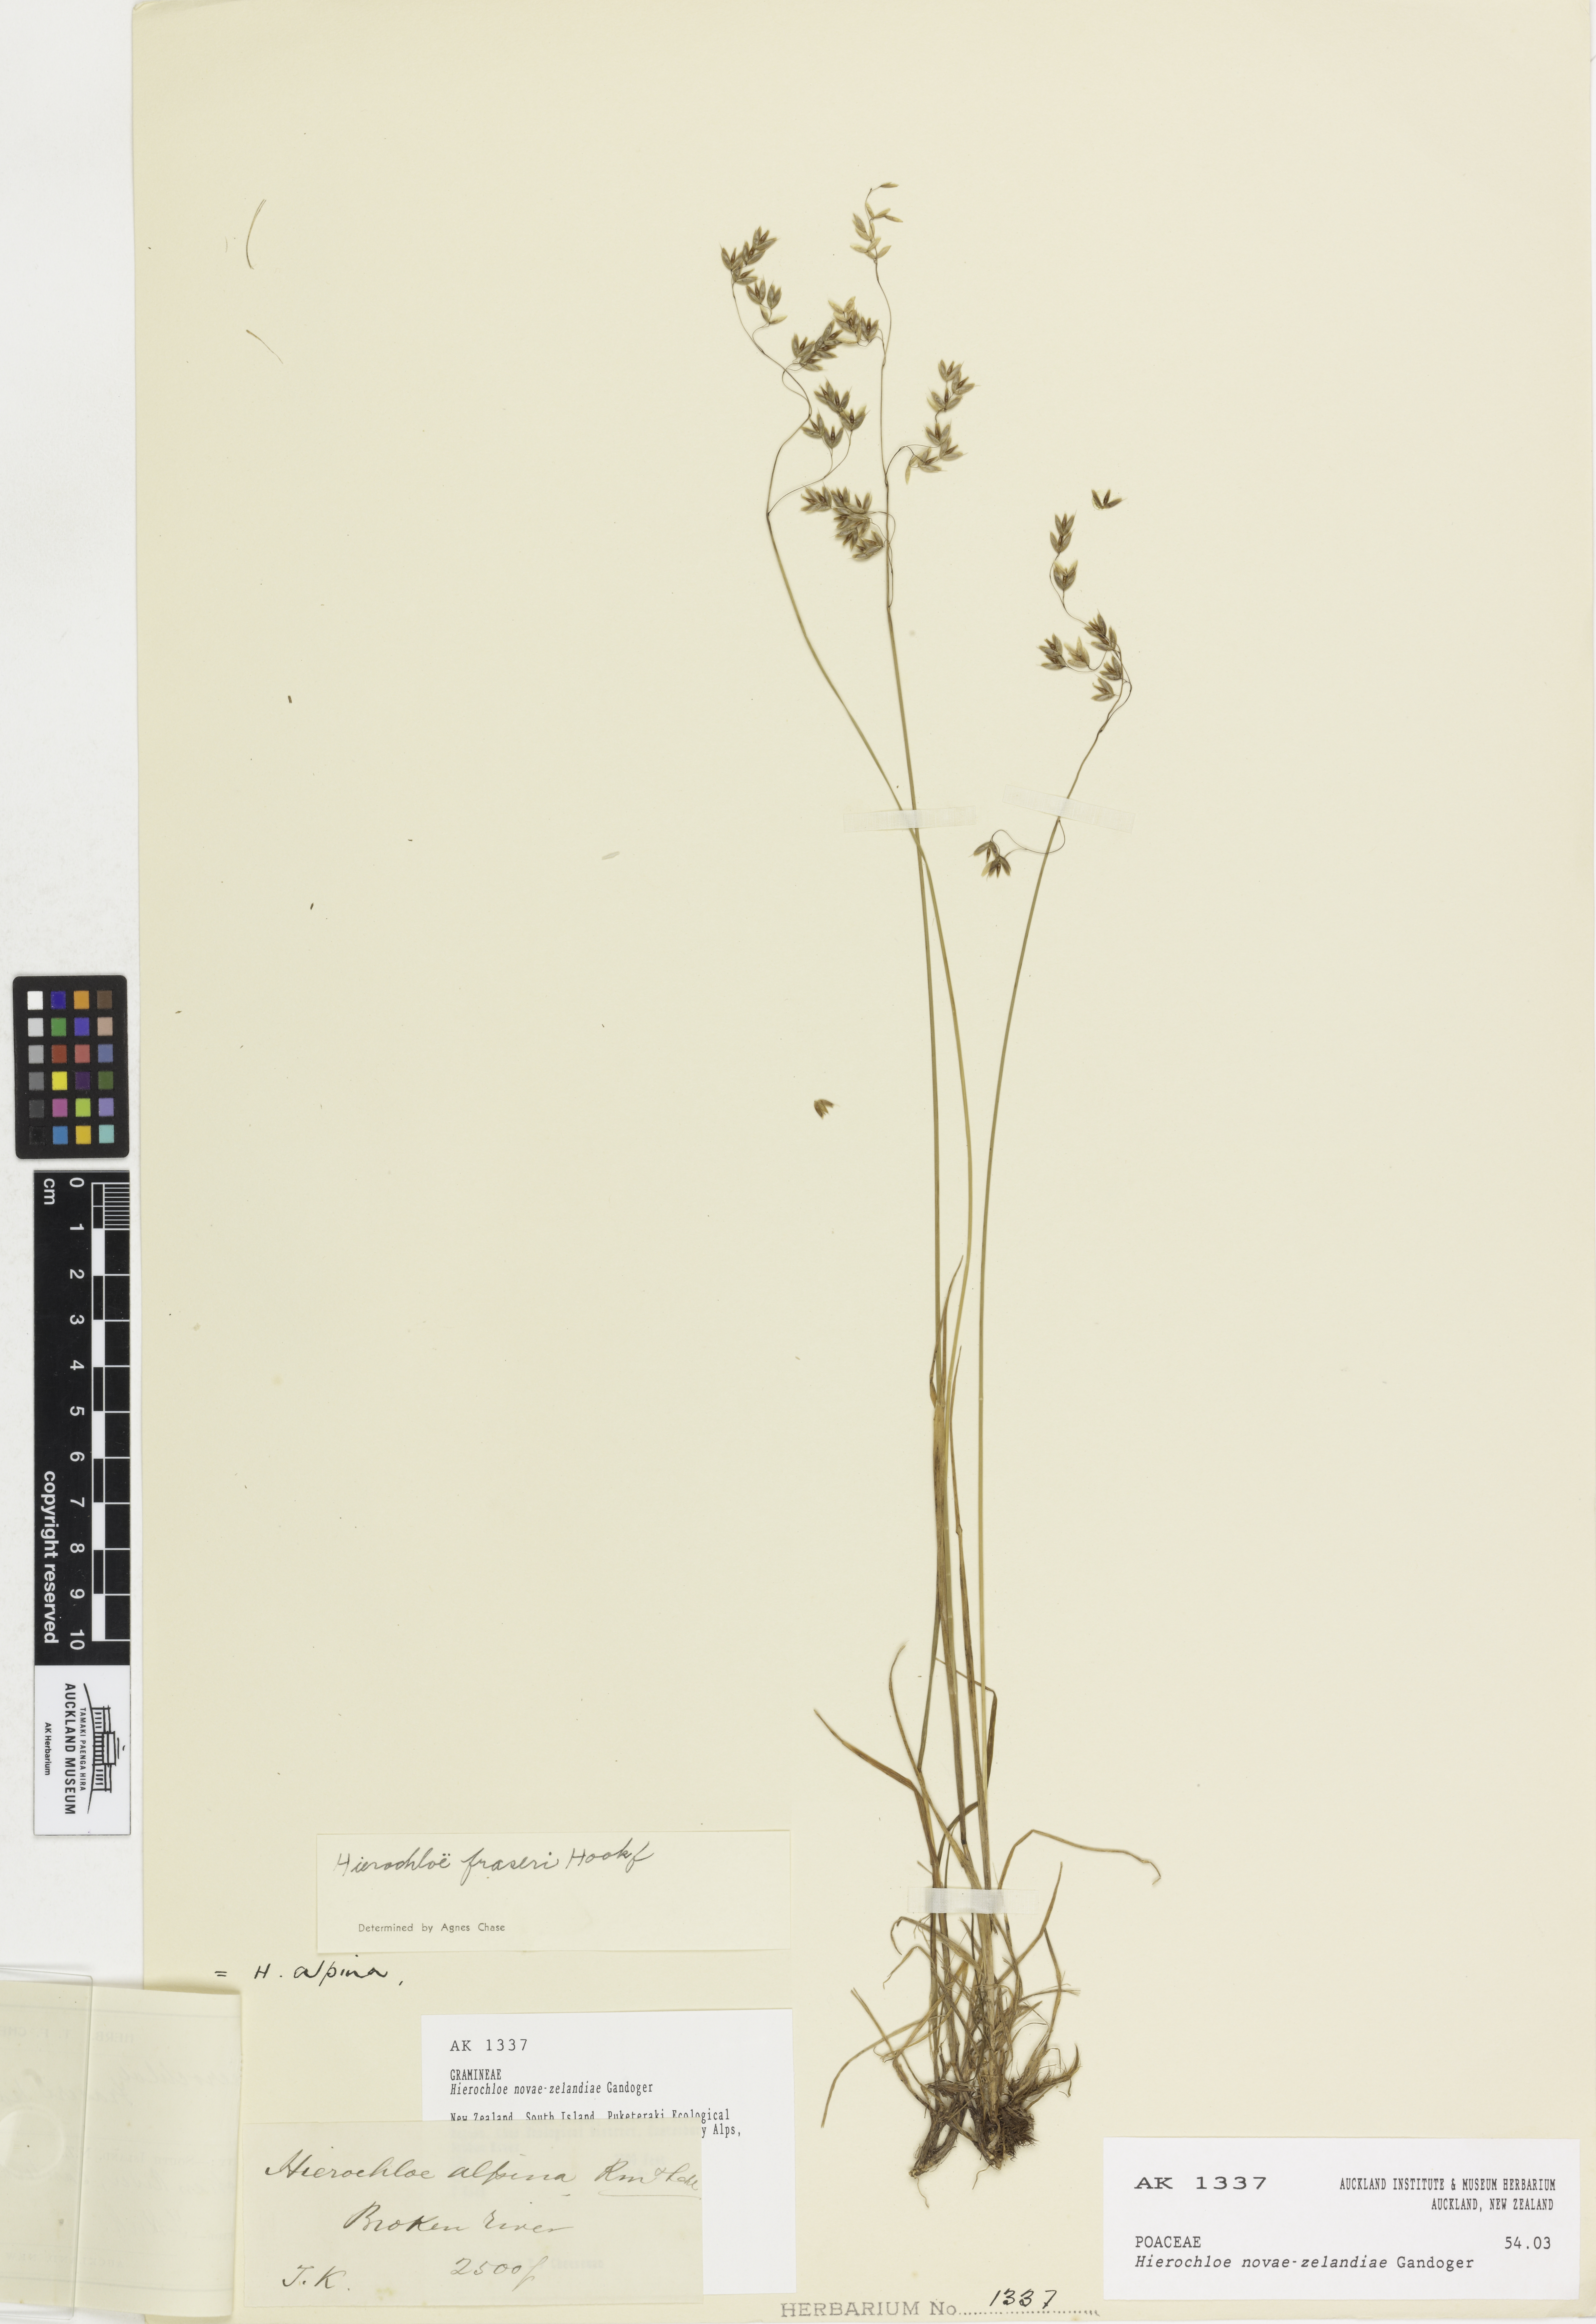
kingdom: Plantae
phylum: Tracheophyta
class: Liliopsida
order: Poales
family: Poaceae
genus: Anthoxanthum
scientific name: Anthoxanthum novae-zelandiae
